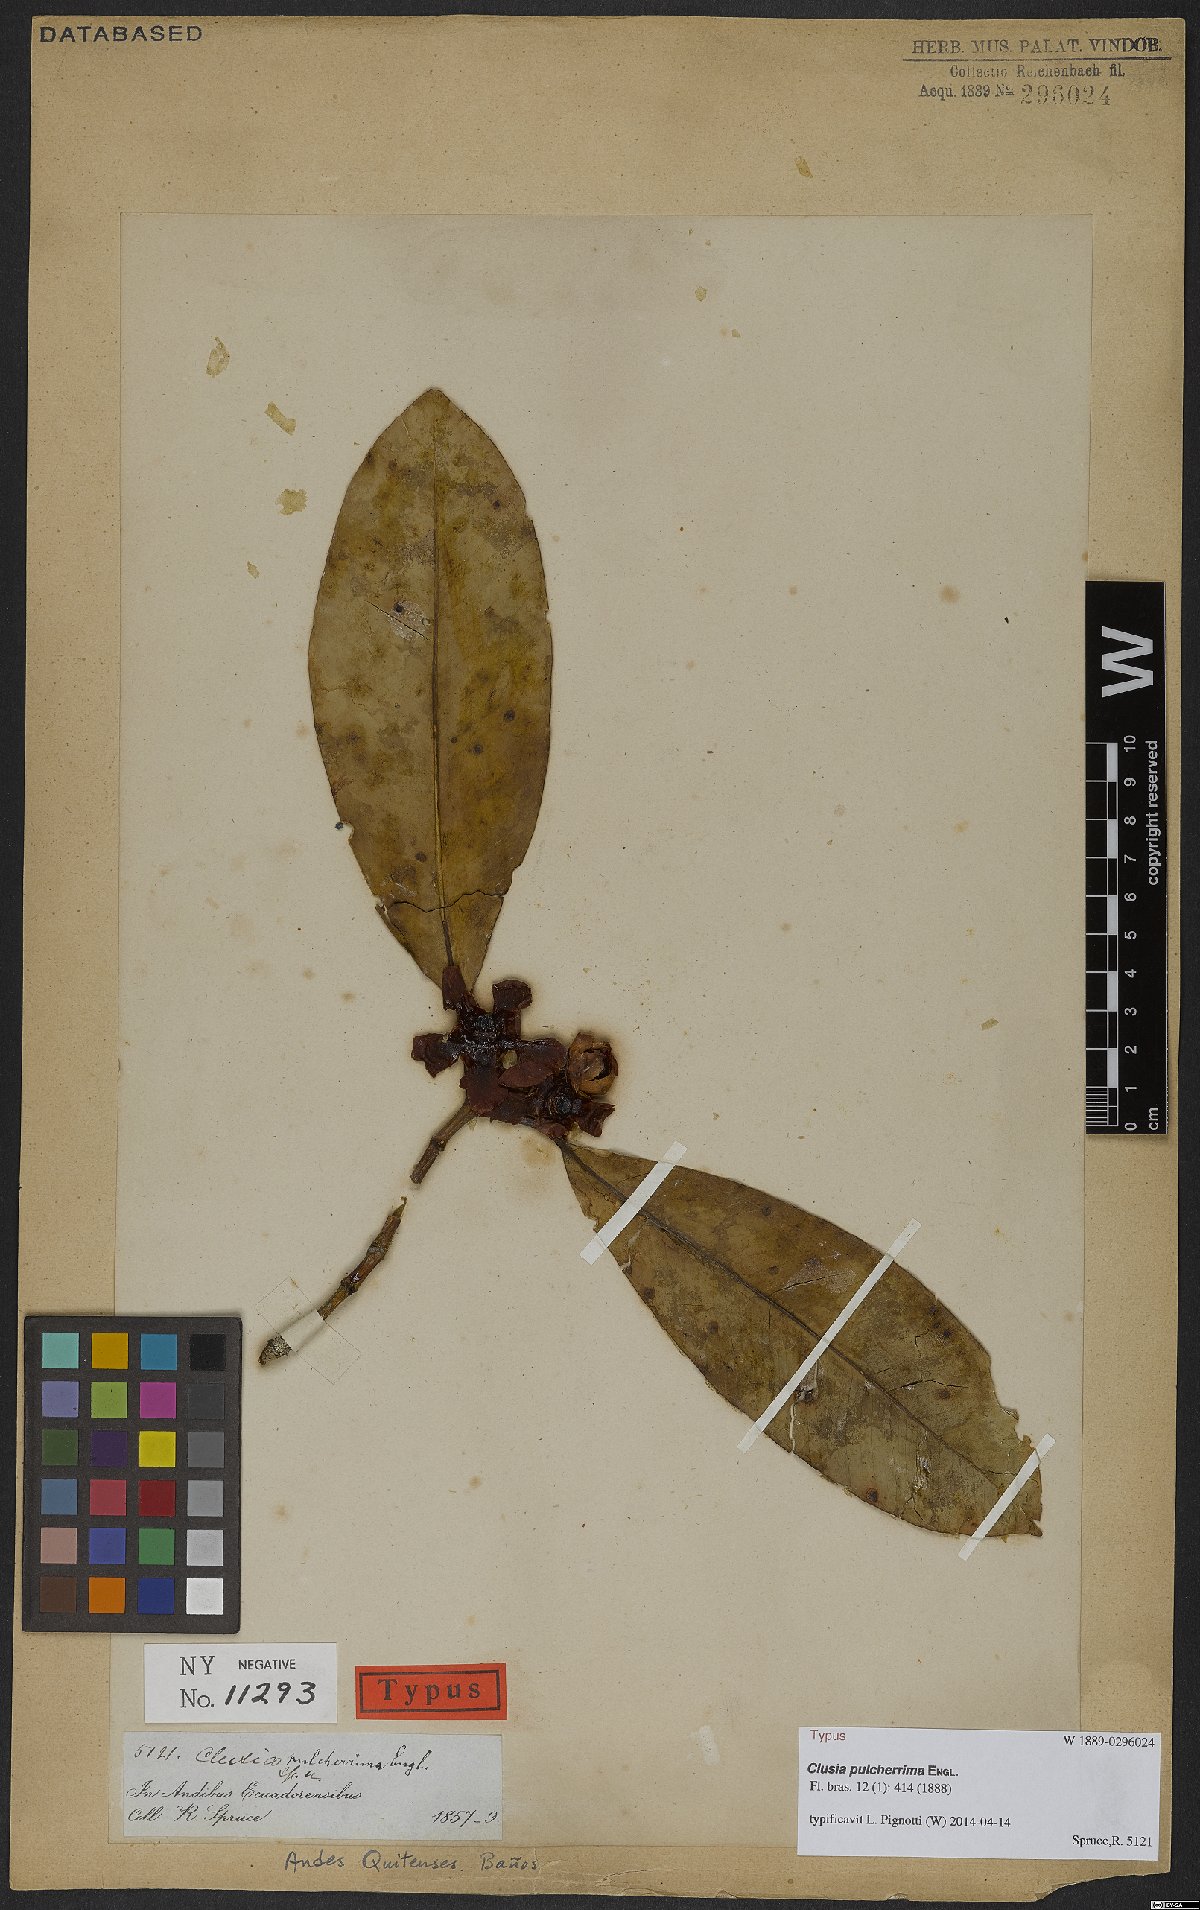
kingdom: Plantae
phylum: Tracheophyta
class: Magnoliopsida
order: Malpighiales
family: Clusiaceae
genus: Clusia
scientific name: Clusia pulcherrima
